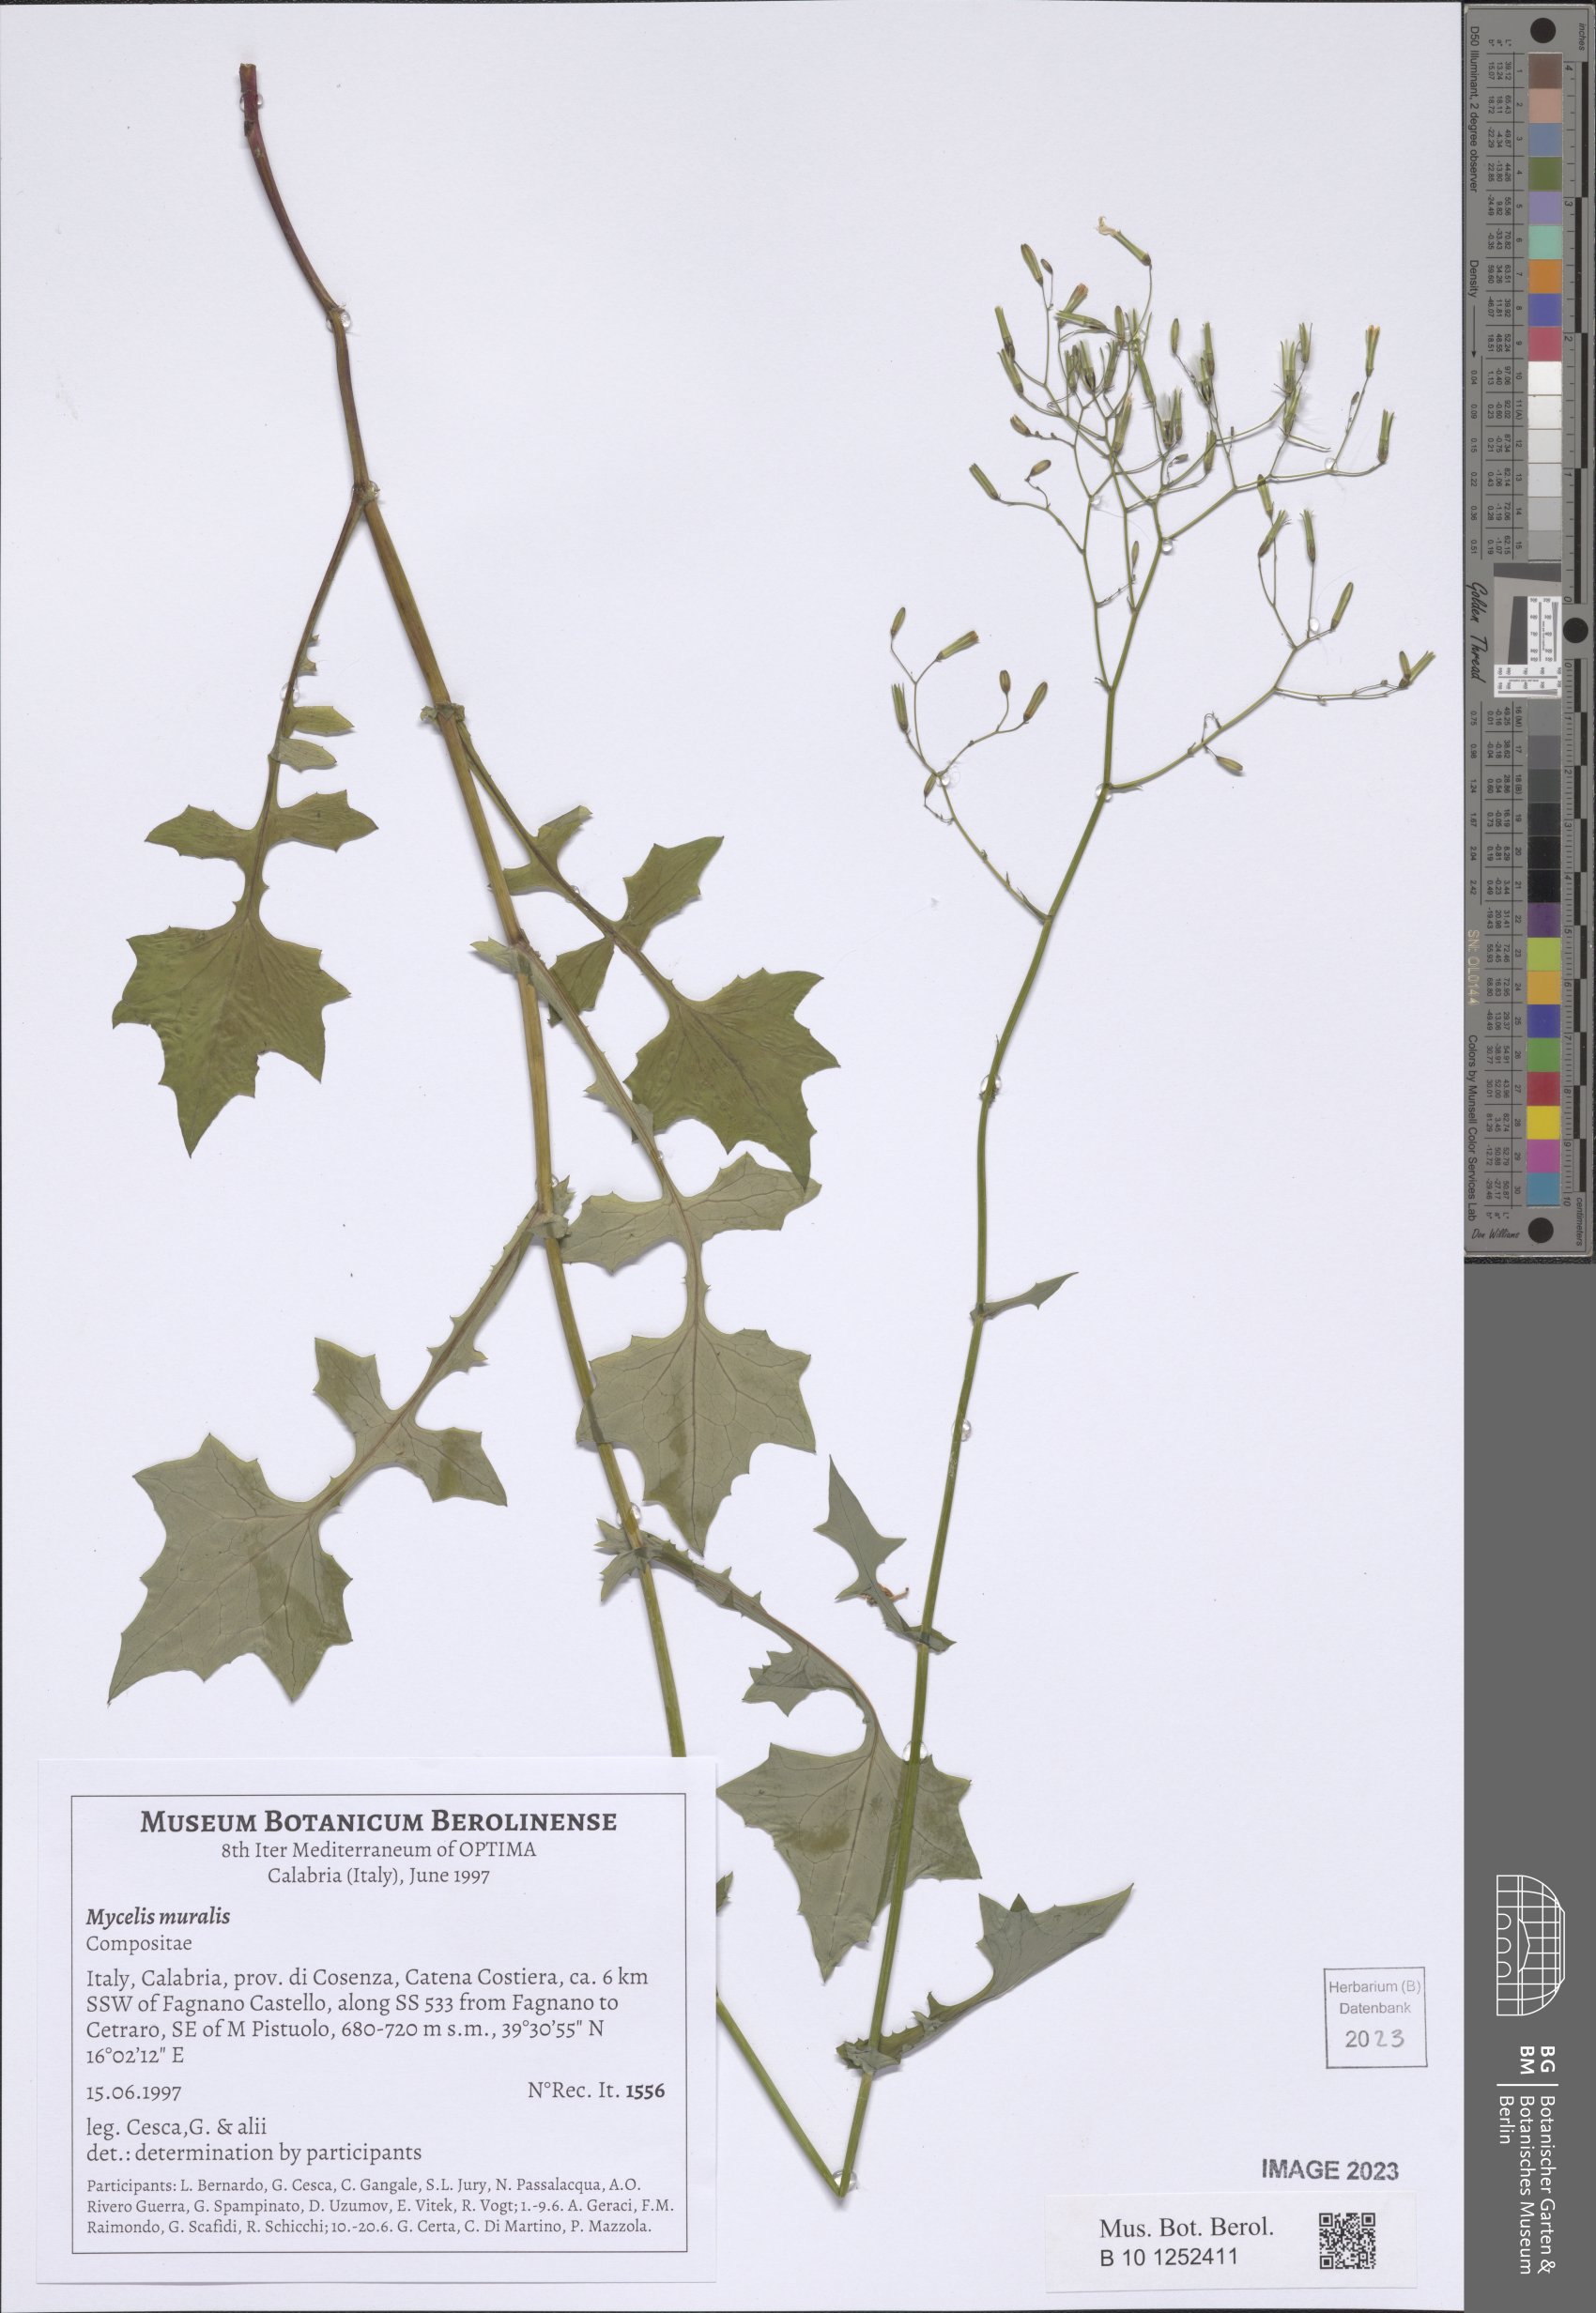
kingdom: Plantae
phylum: Tracheophyta
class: Magnoliopsida
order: Asterales
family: Asteraceae
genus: Mycelis
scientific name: Mycelis muralis
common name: Wall lettuce
